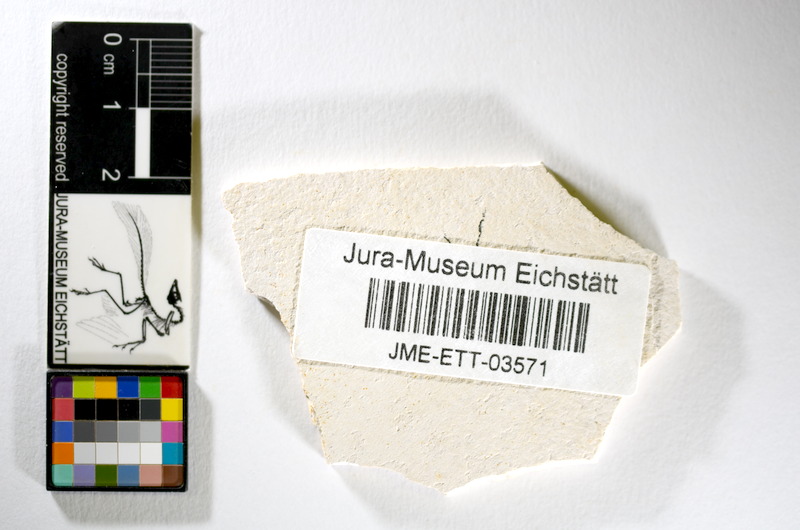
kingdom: Animalia
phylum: Chordata
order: Salmoniformes
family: Orthogonikleithridae
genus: Orthogonikleithrus
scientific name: Orthogonikleithrus hoelli
